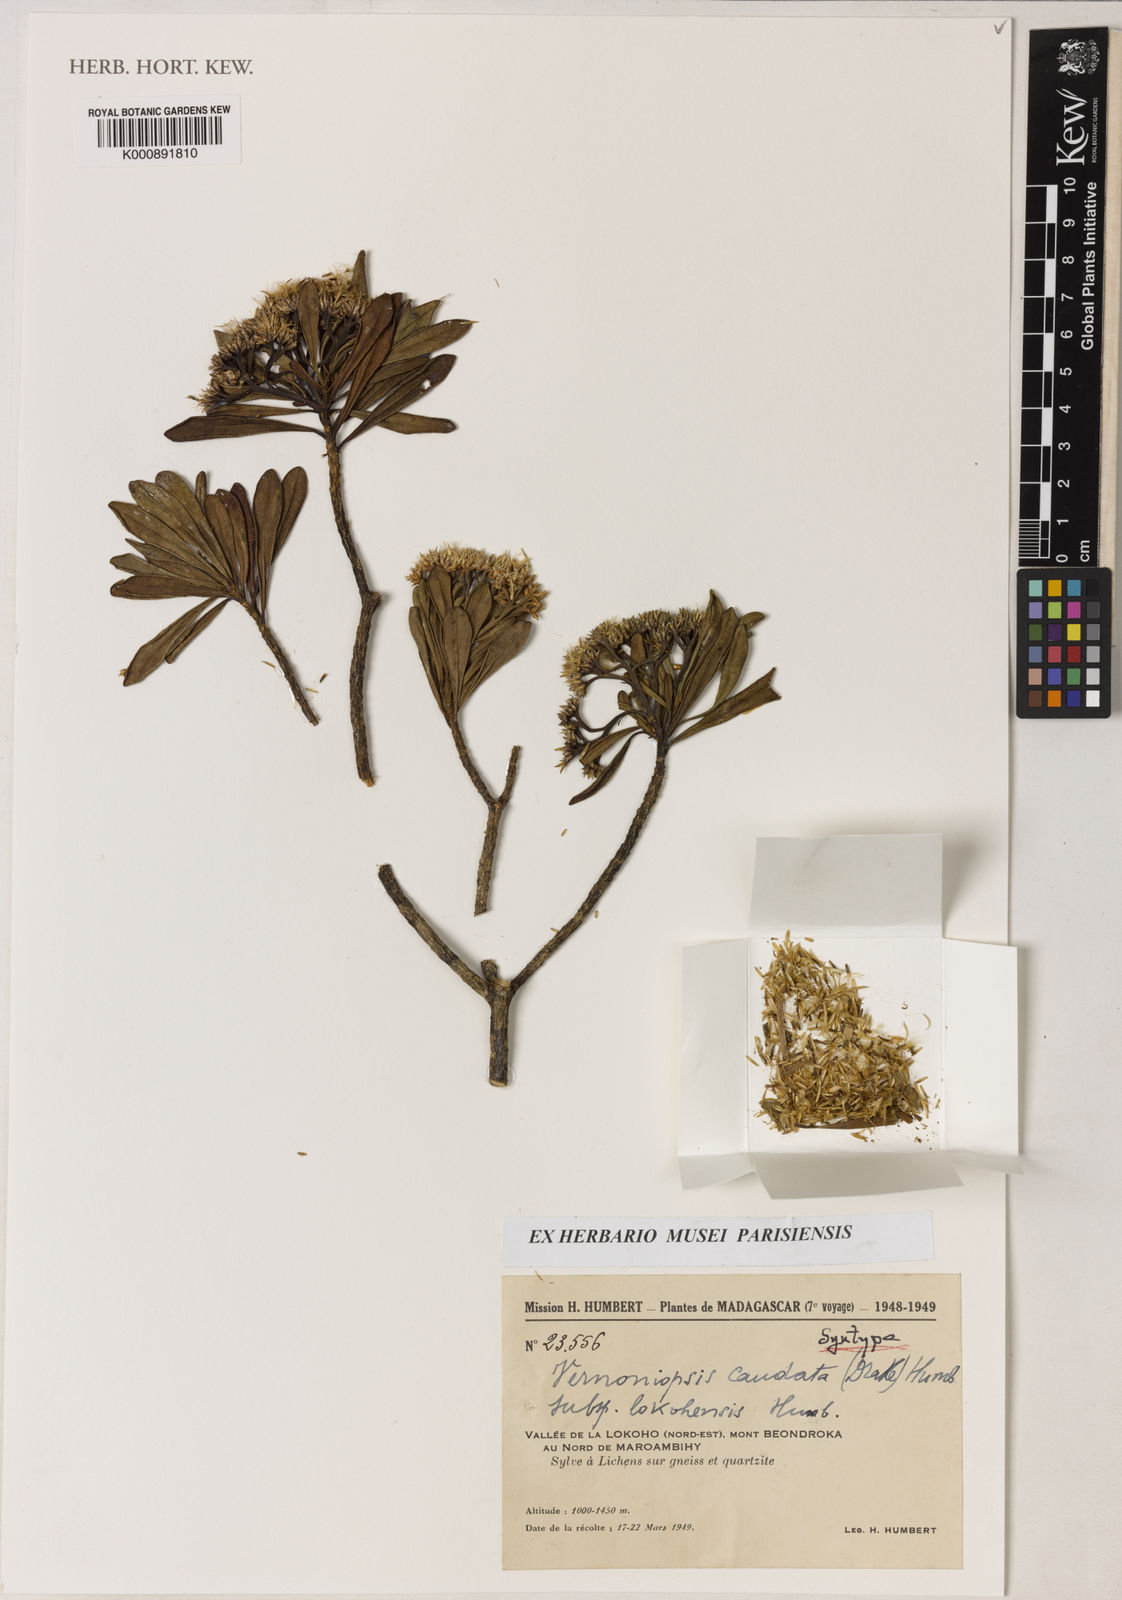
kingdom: Plantae
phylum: Tracheophyta
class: Magnoliopsida
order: Asterales
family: Asteraceae
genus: Vernoniopsis
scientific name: Vernoniopsis caudata
